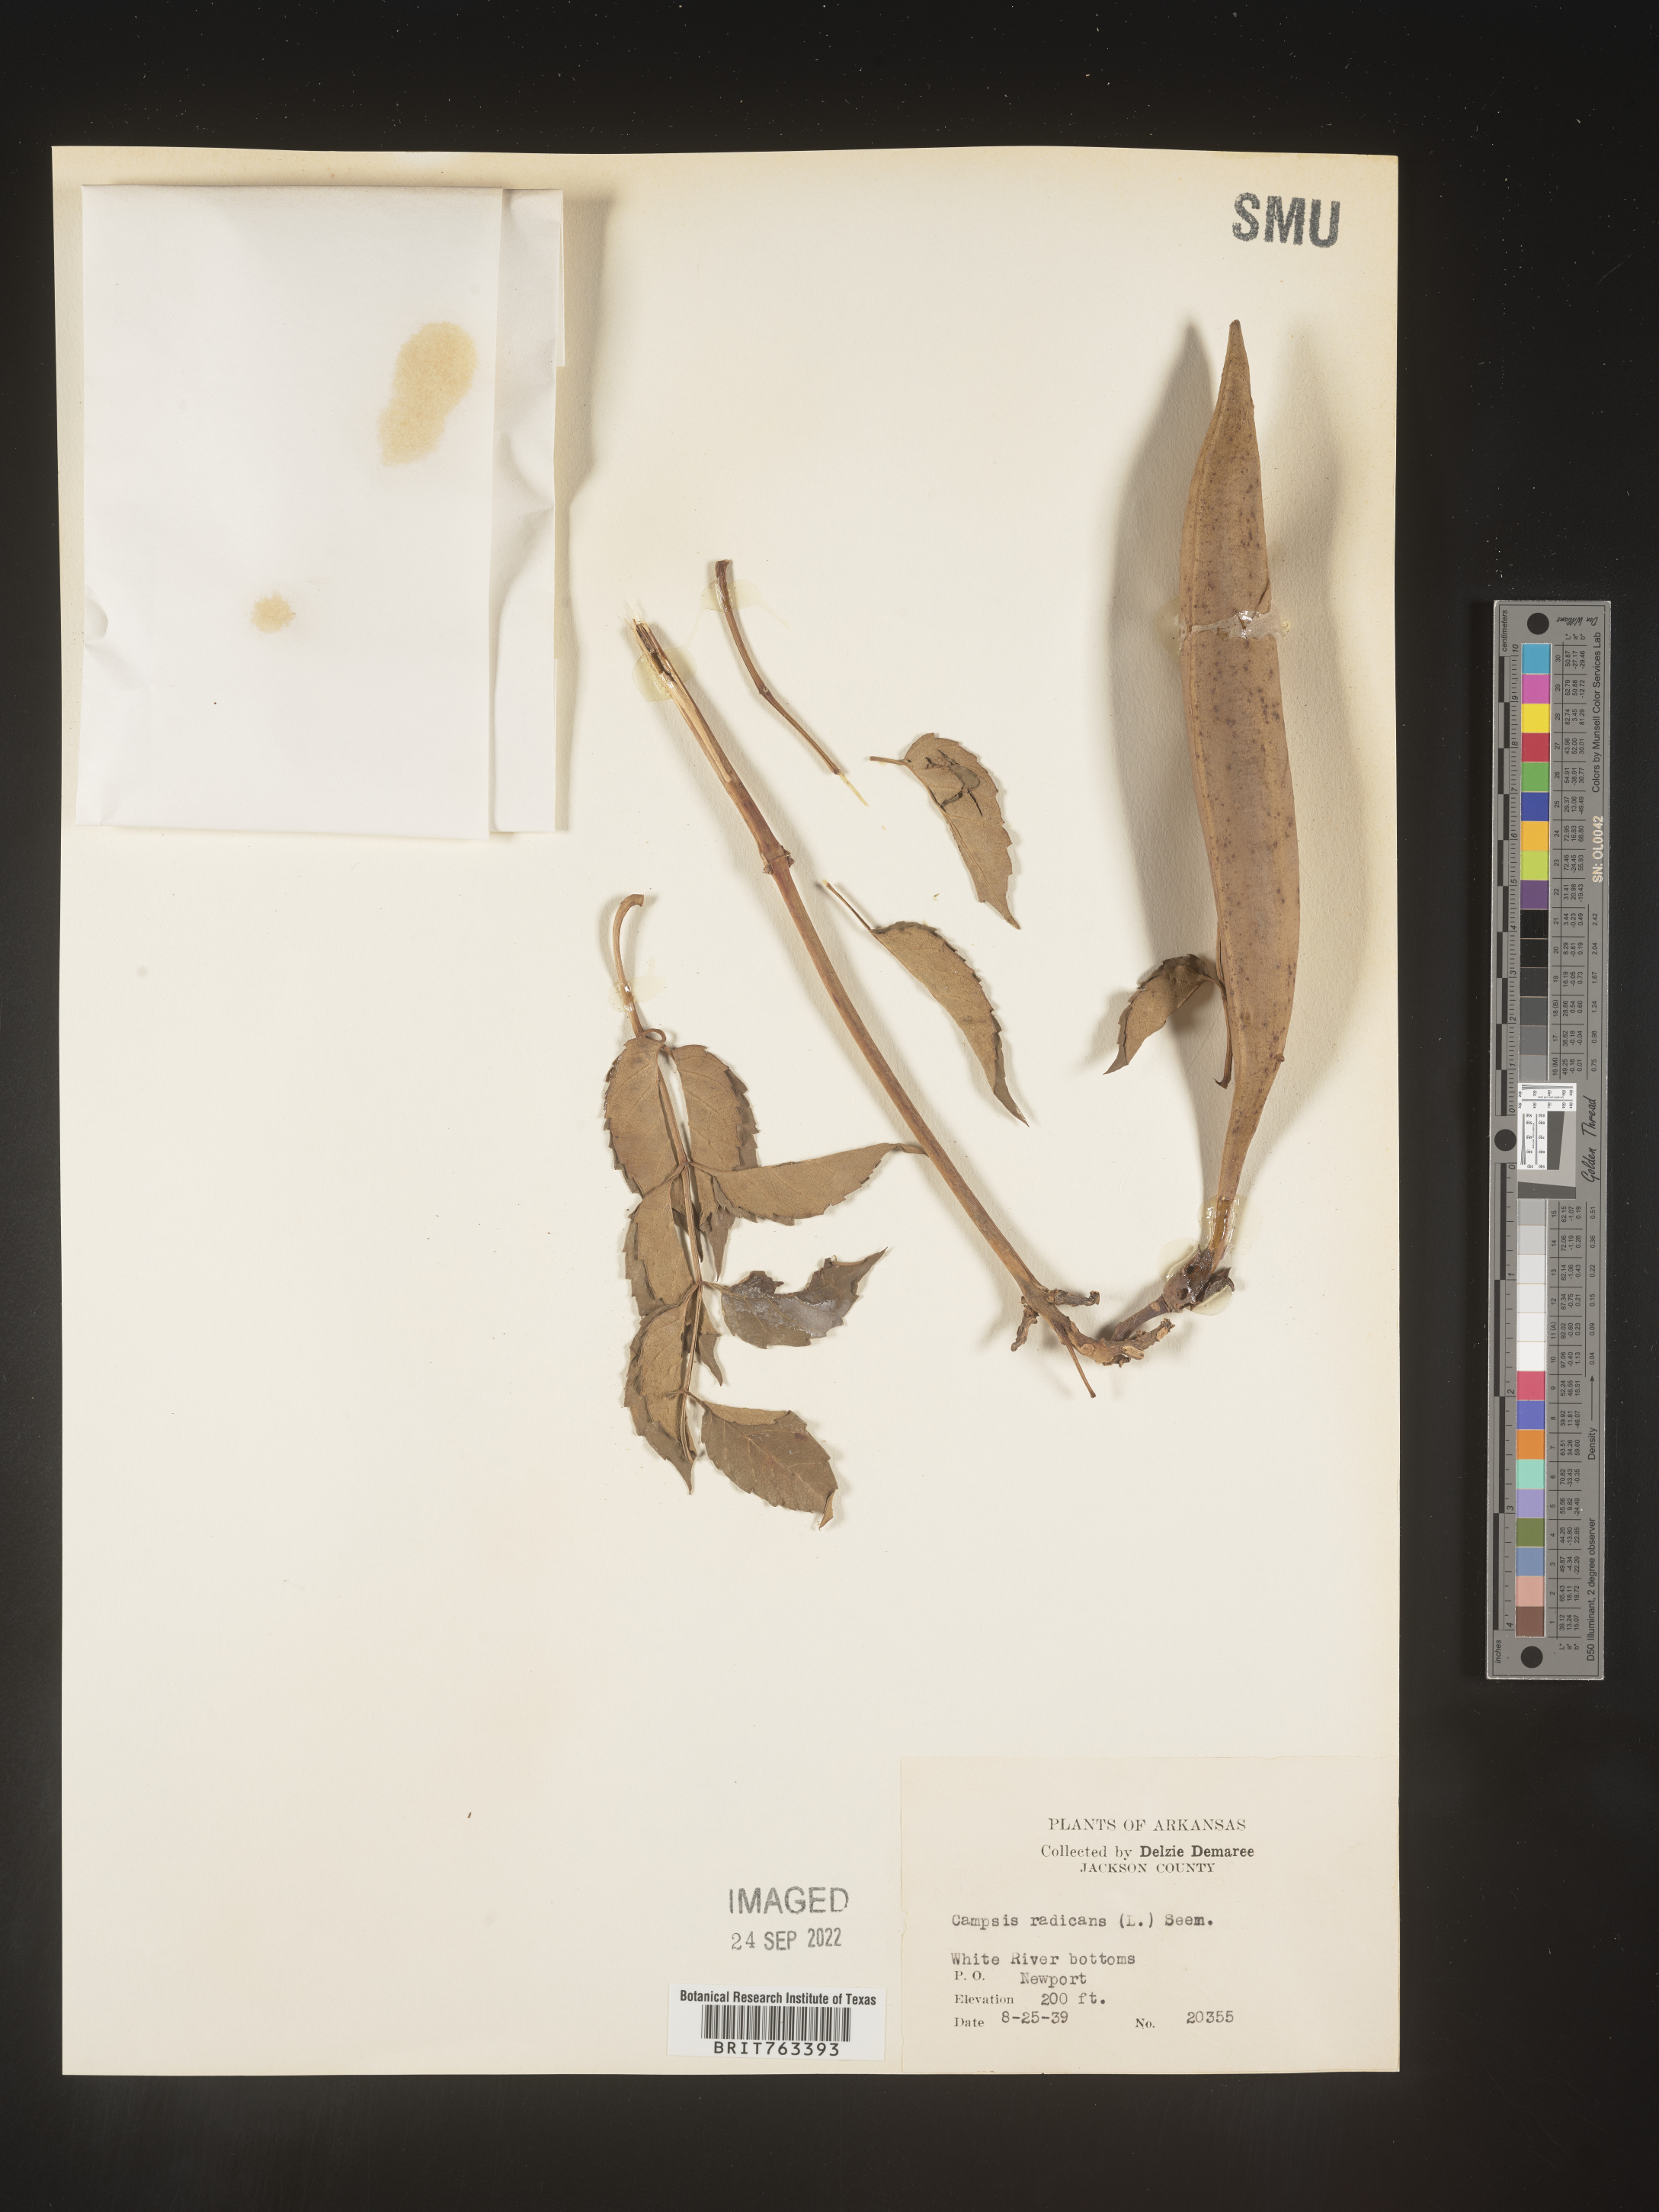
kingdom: Plantae
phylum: Tracheophyta
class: Magnoliopsida
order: Lamiales
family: Bignoniaceae
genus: Campsis
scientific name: Campsis radicans
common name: Trumpet-creeper
